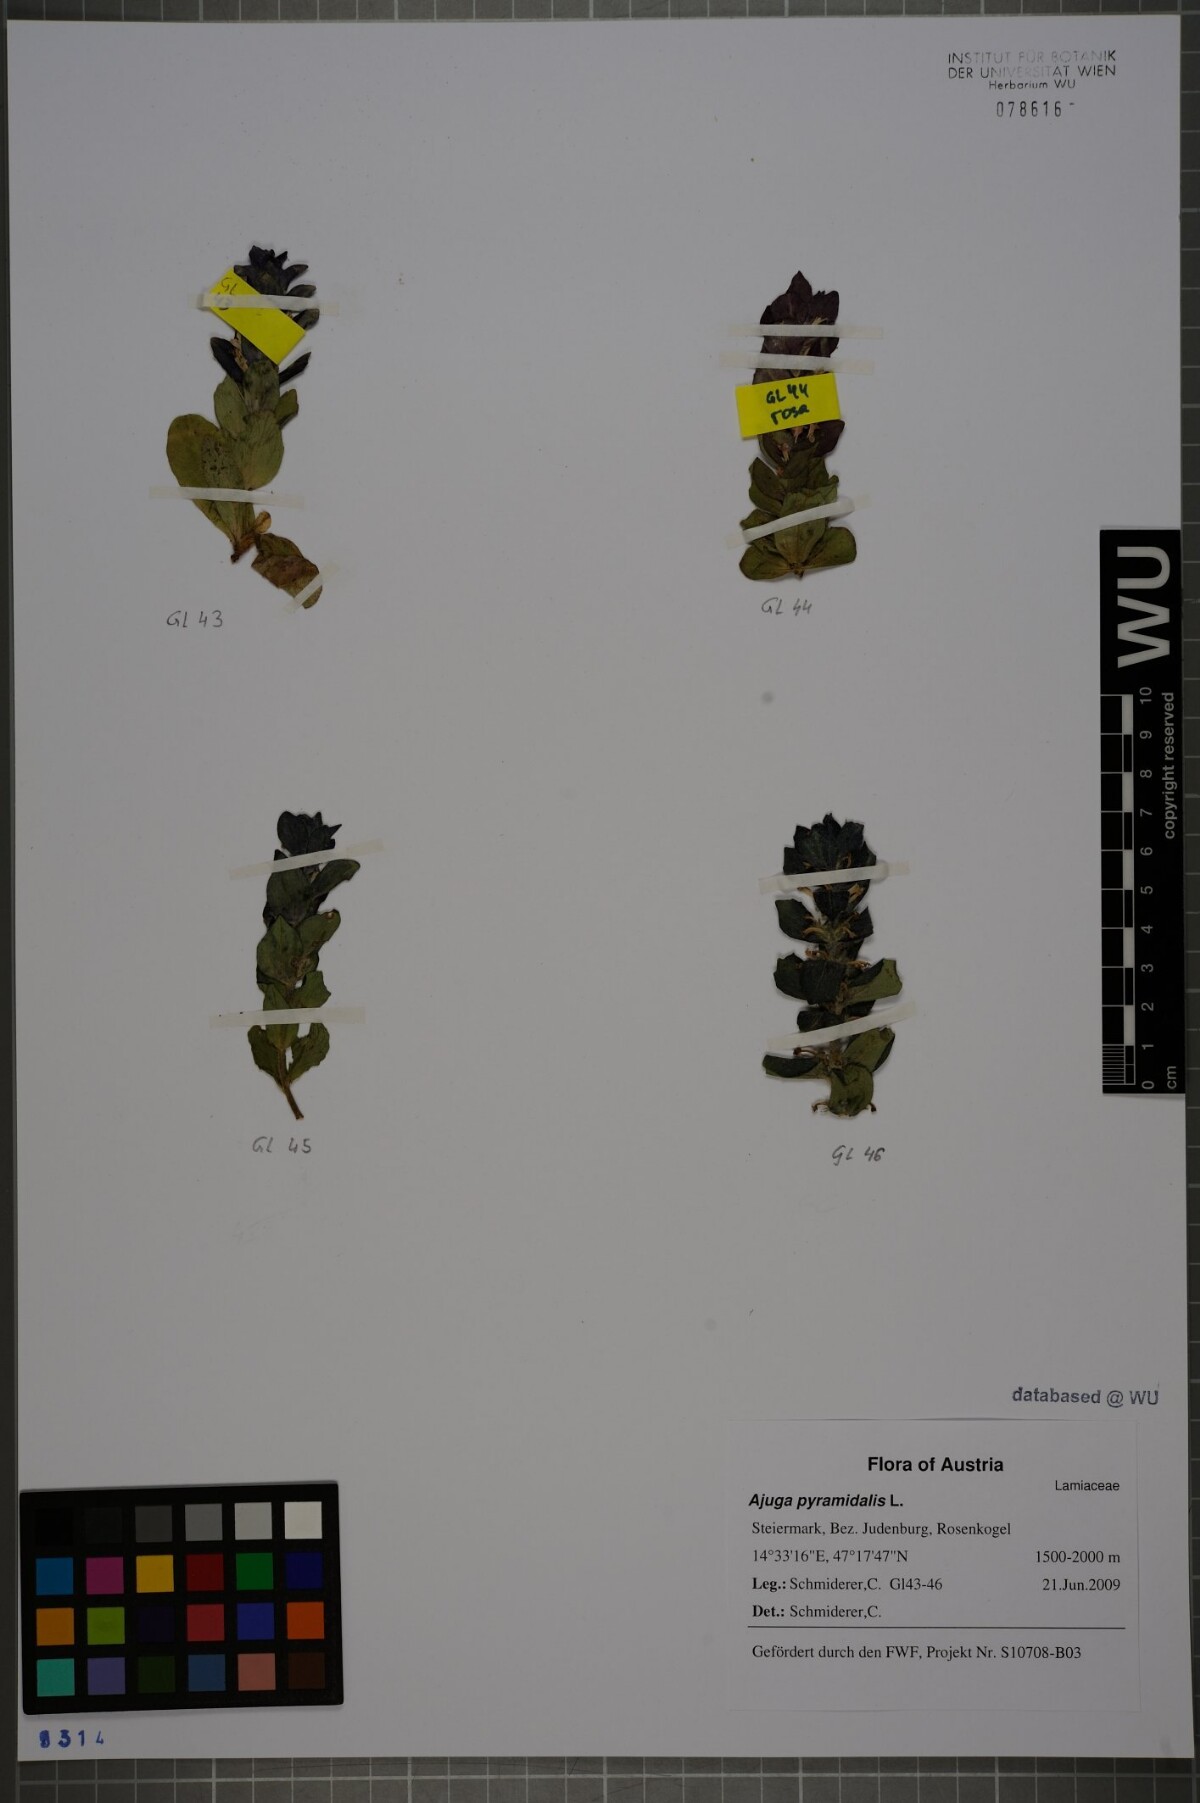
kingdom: Plantae
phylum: Tracheophyta
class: Magnoliopsida
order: Lamiales
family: Lamiaceae
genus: Ajuga
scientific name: Ajuga pyramidalis
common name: Pyramid bugle
